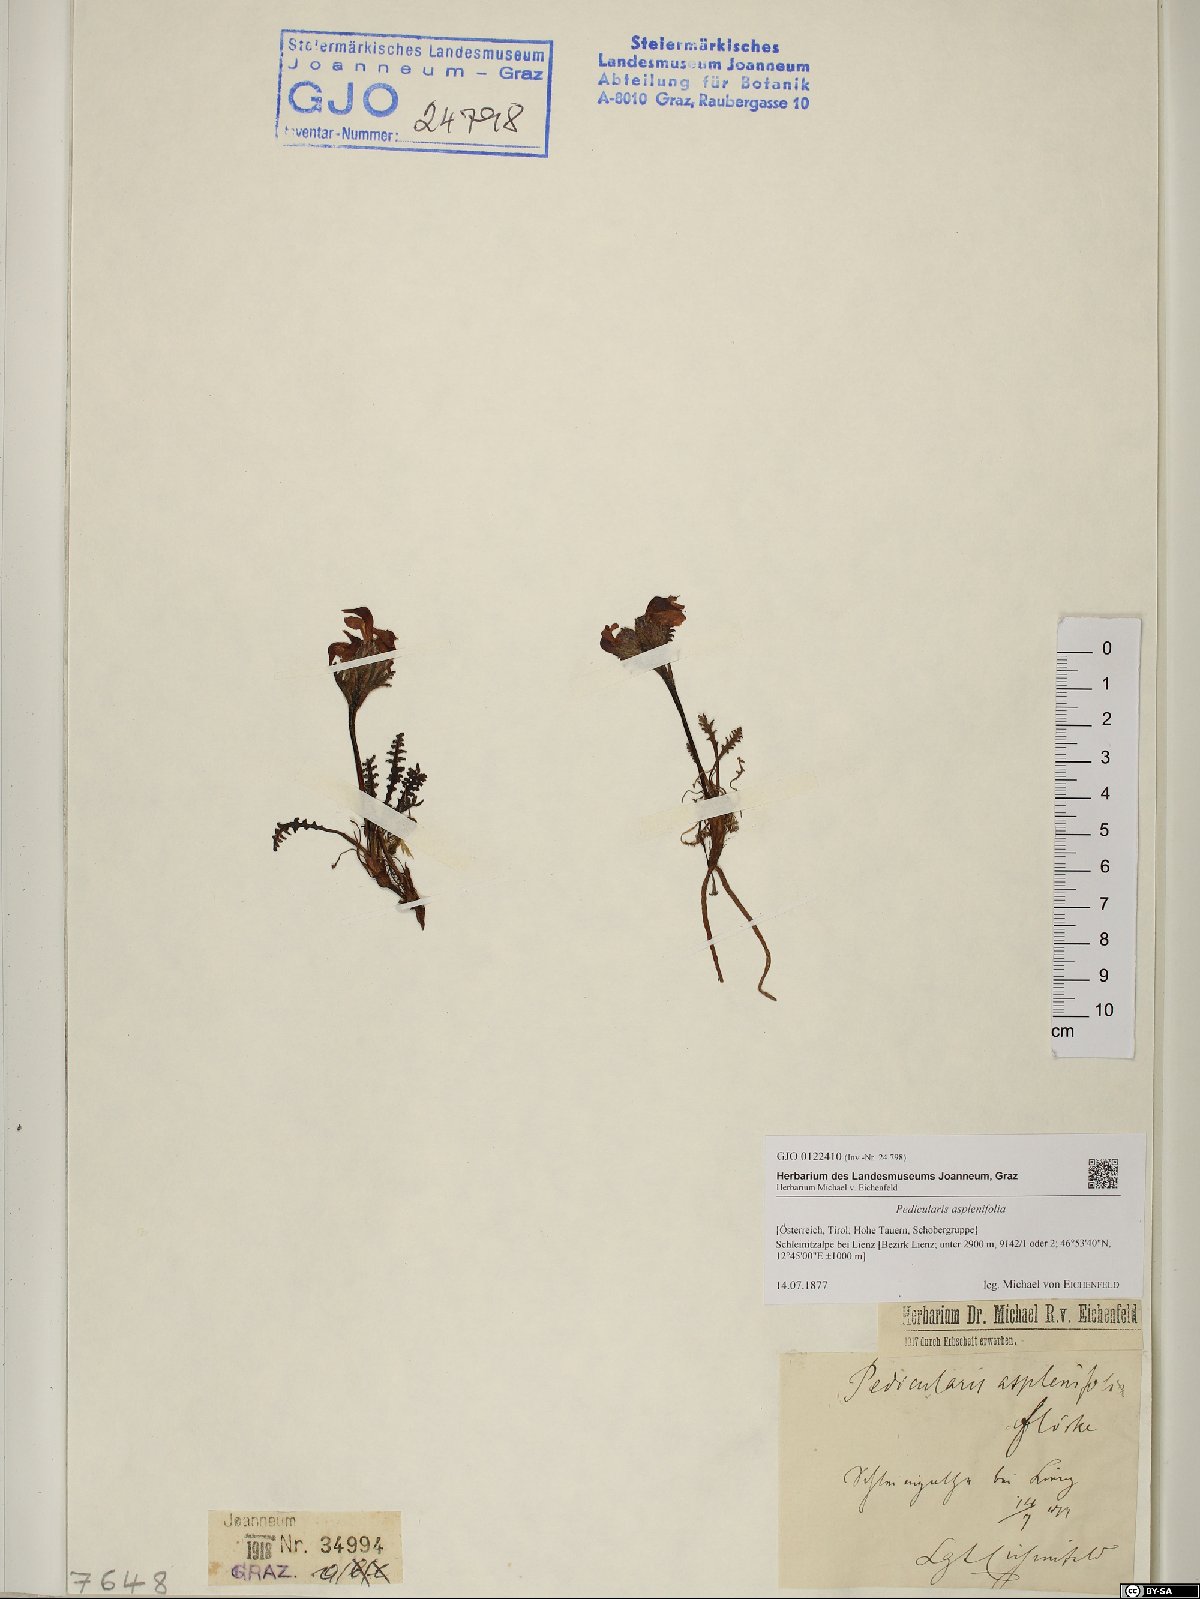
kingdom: Plantae
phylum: Tracheophyta
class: Magnoliopsida
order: Lamiales
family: Orobanchaceae
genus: Pedicularis
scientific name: Pedicularis asplenifolia
